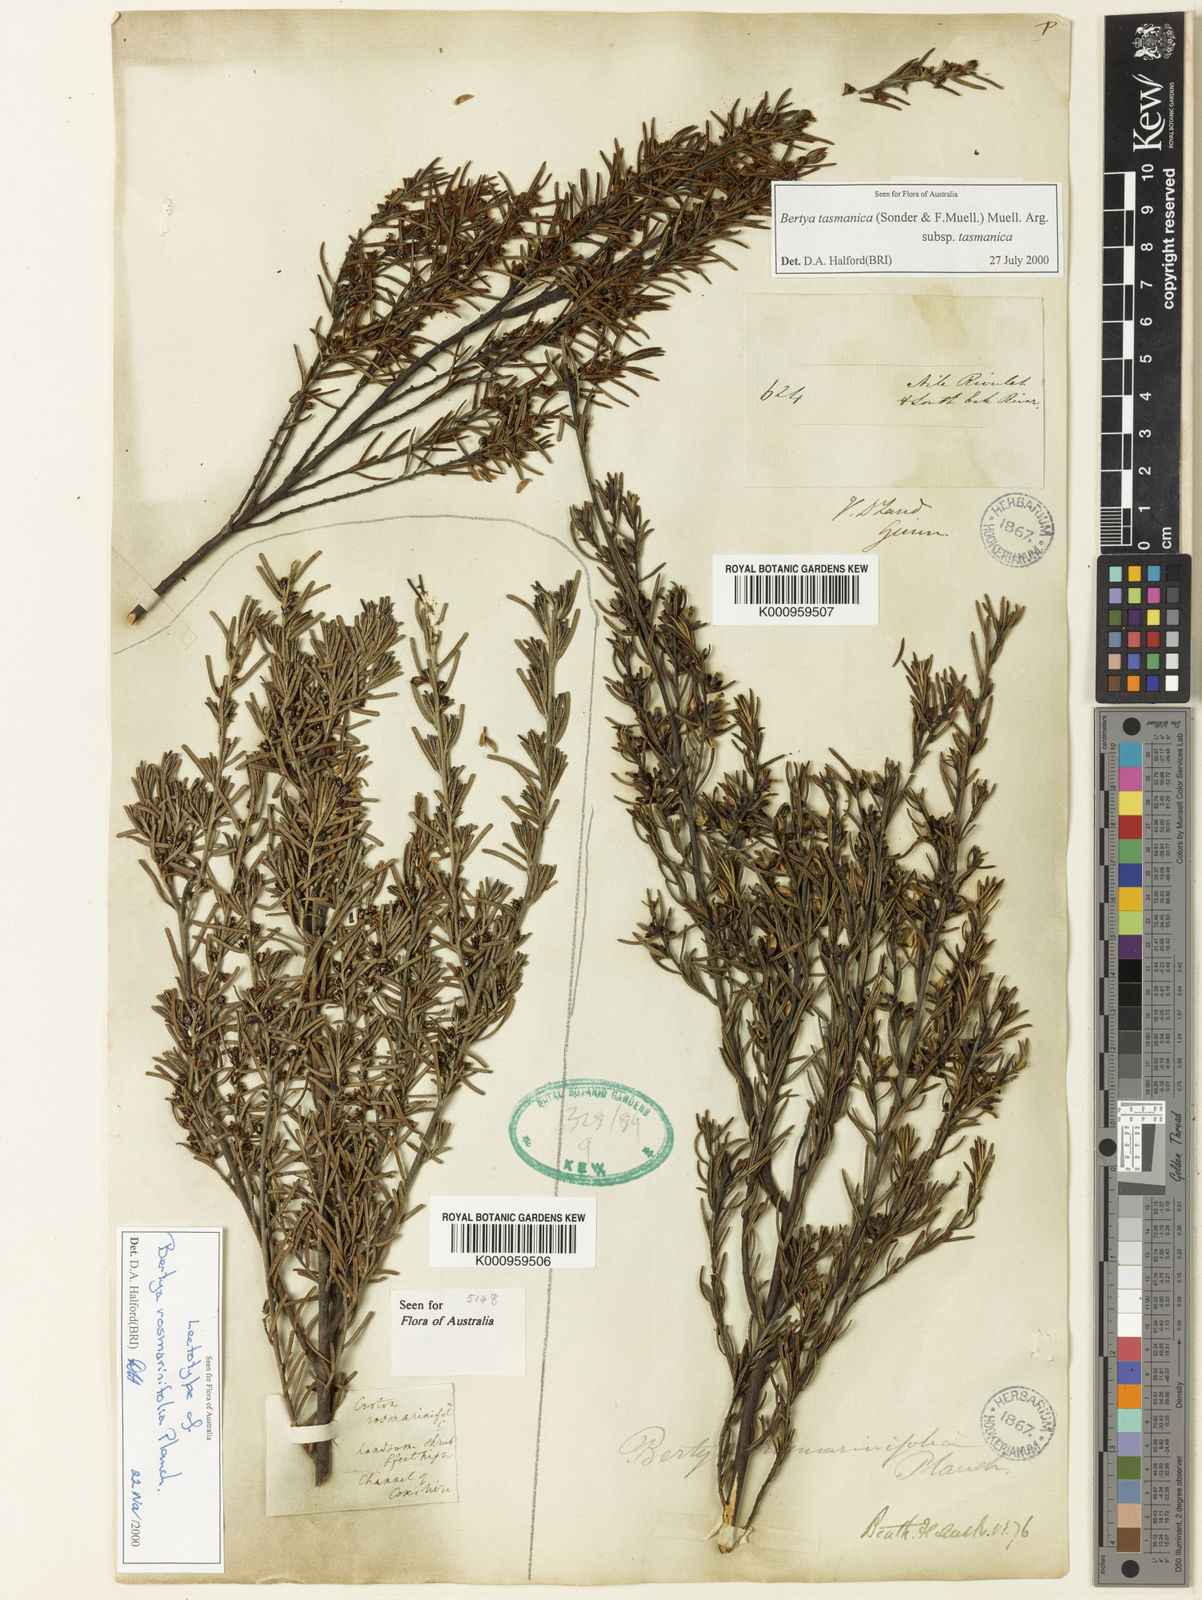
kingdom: Plantae
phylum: Tracheophyta
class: Magnoliopsida
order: Malpighiales
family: Euphorbiaceae
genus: Bertya
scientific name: Bertya rosmarinifolia
